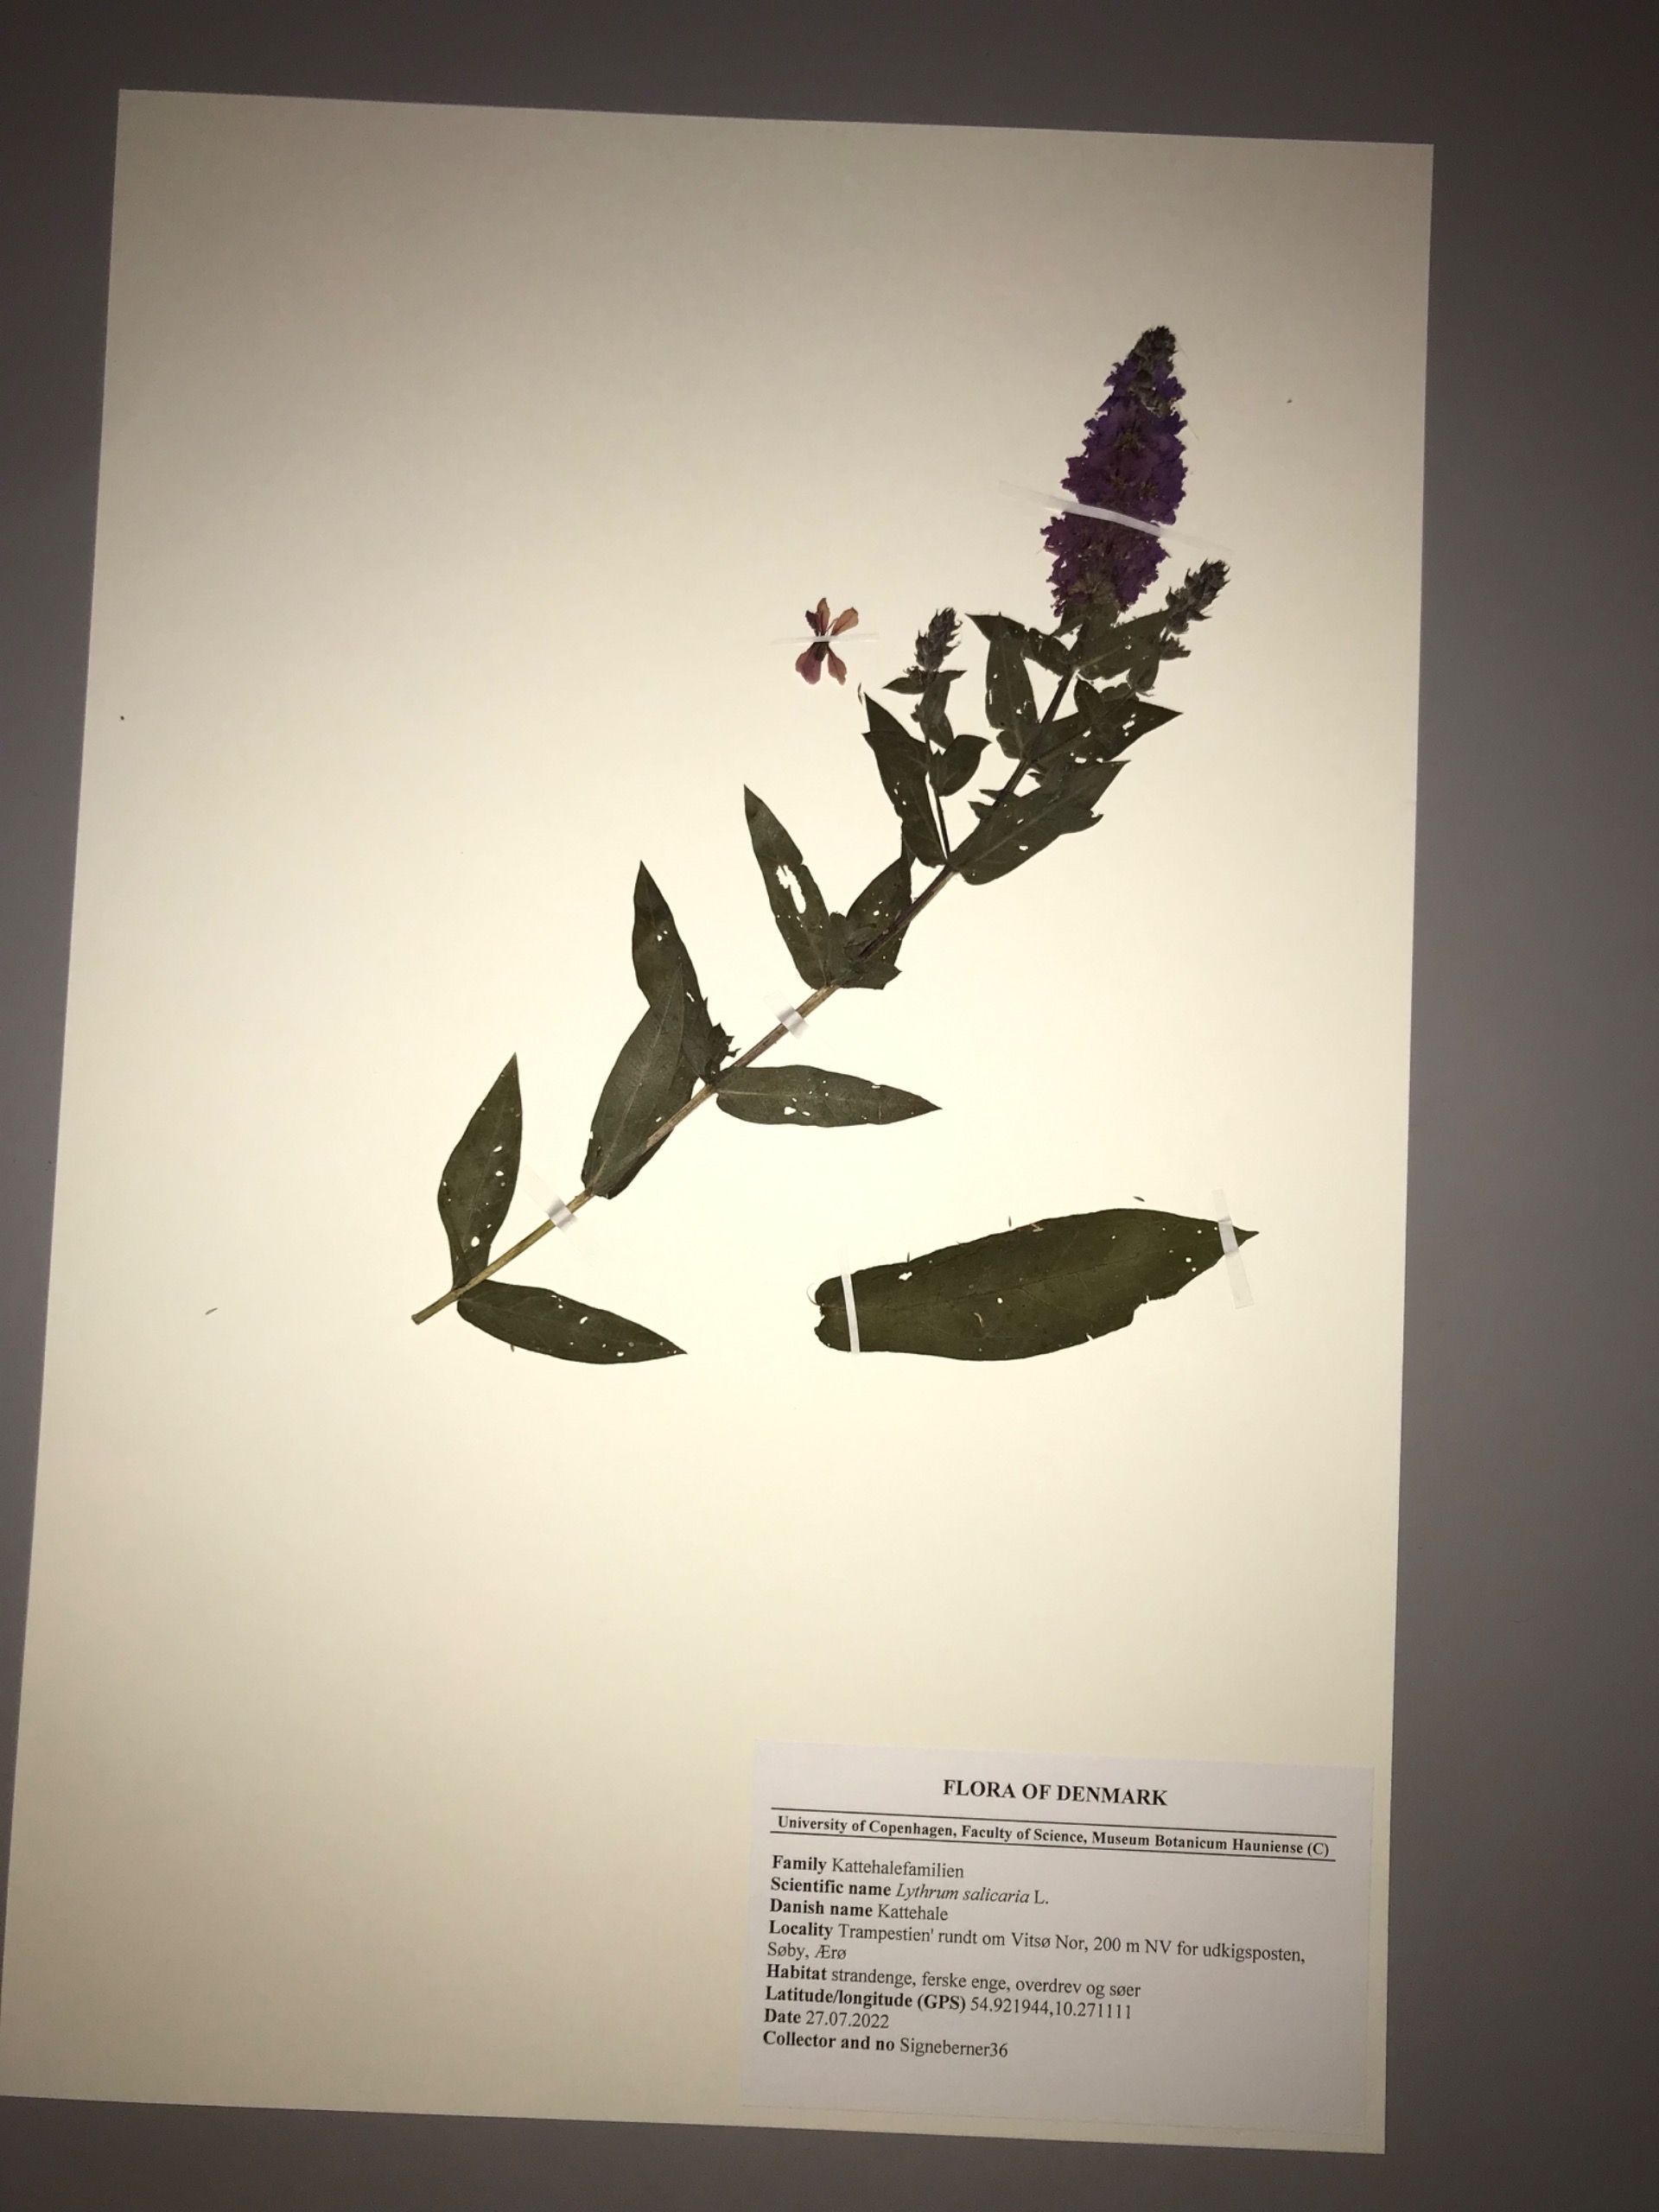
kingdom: Plantae
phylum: Tracheophyta
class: Magnoliopsida
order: Myrtales
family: Lythraceae
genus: Lythrum
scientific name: Lythrum salicaria
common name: Kattehale
